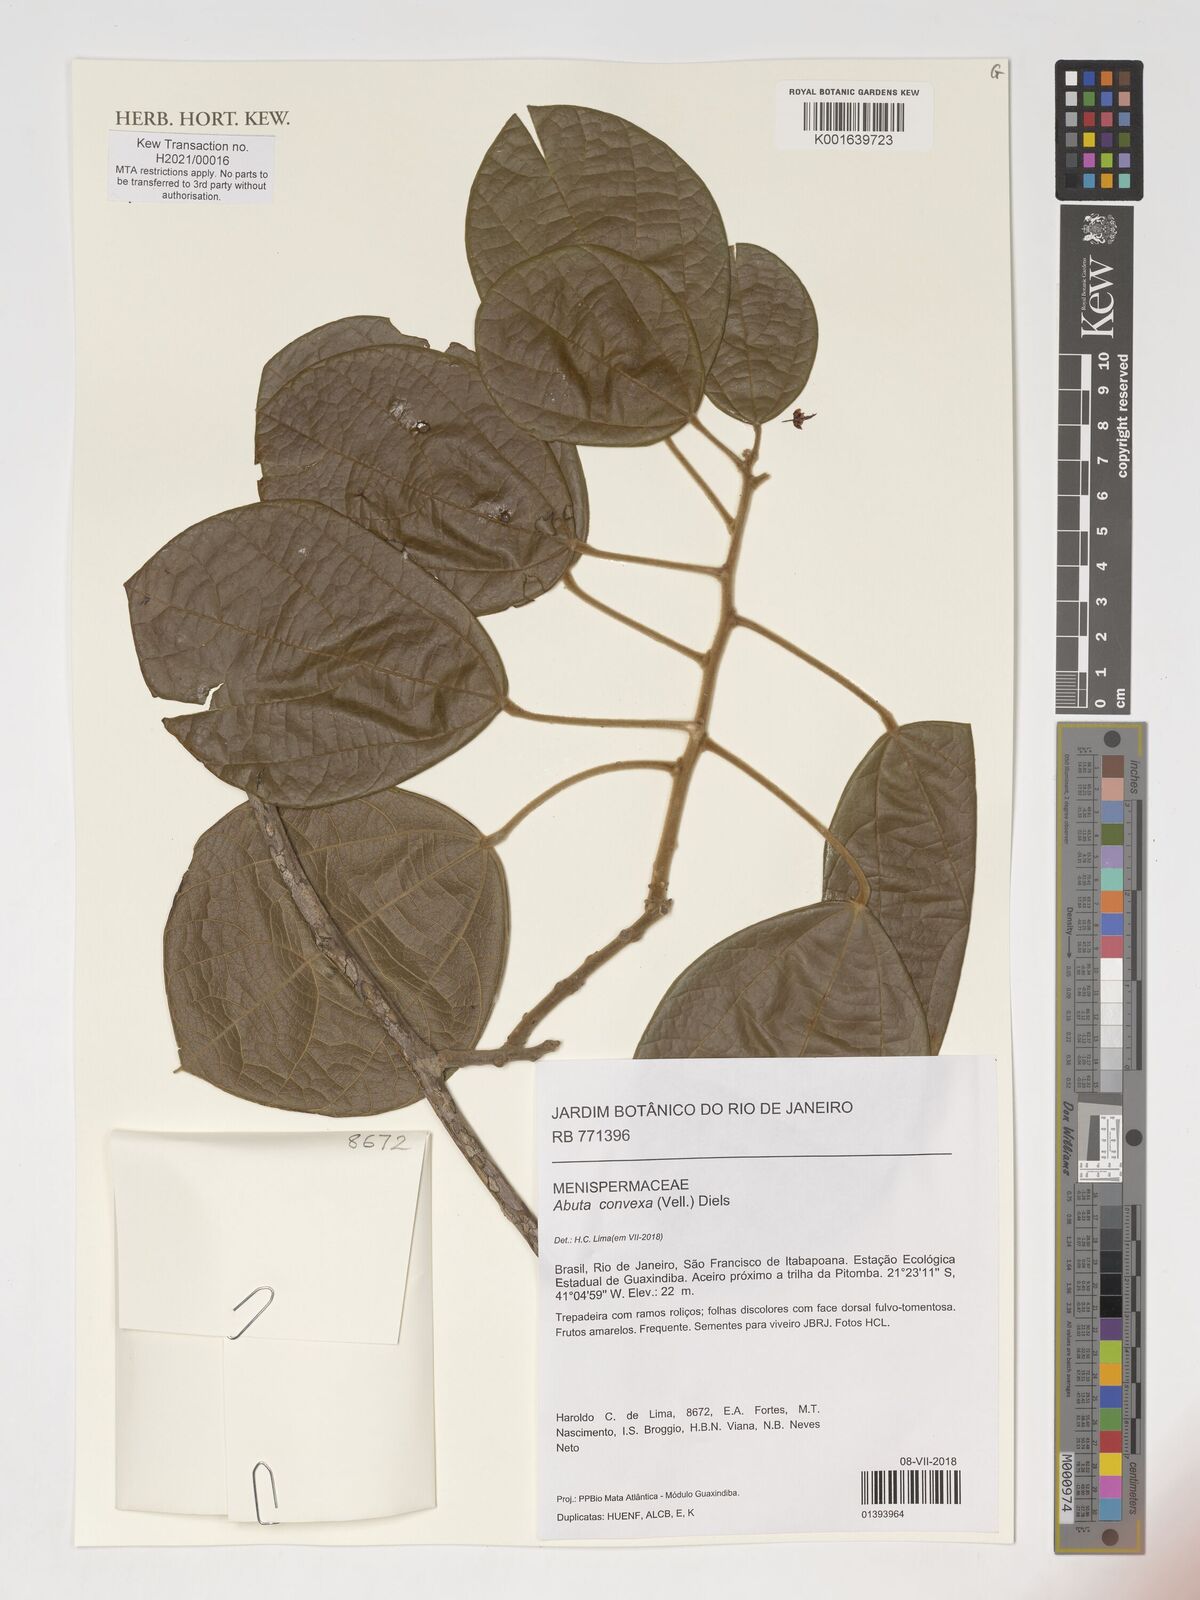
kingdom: Plantae
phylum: Tracheophyta
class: Magnoliopsida
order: Ranunculales
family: Menispermaceae
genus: Abuta
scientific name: Abuta rufescens
